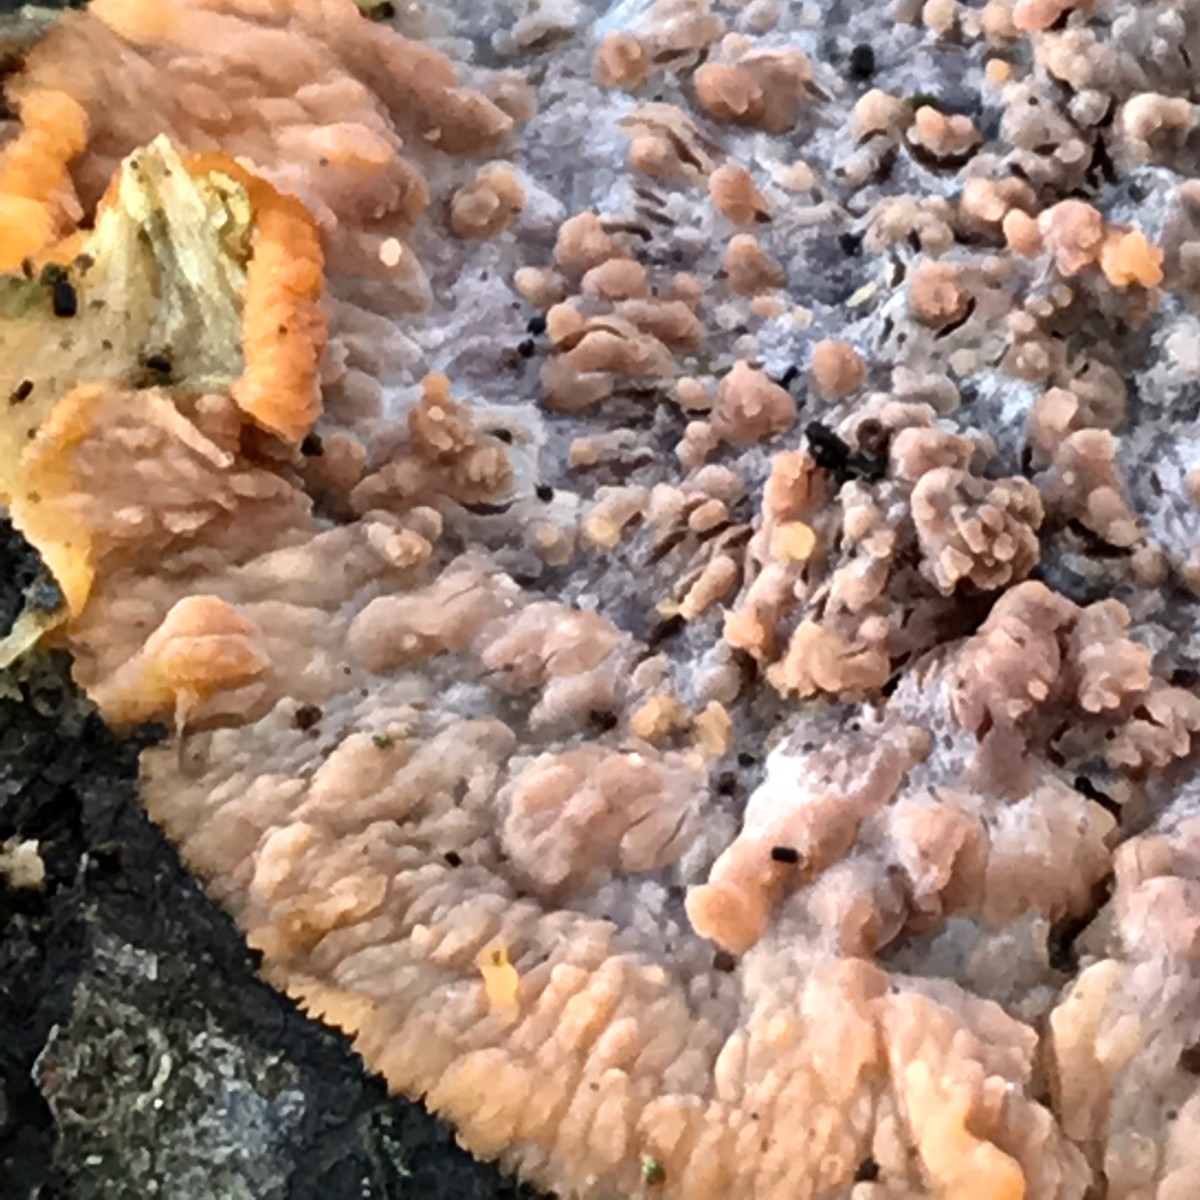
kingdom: Fungi
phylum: Basidiomycota
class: Agaricomycetes
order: Polyporales
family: Meruliaceae
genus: Phlebia
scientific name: Phlebia radiata
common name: stråle-åresvamp
